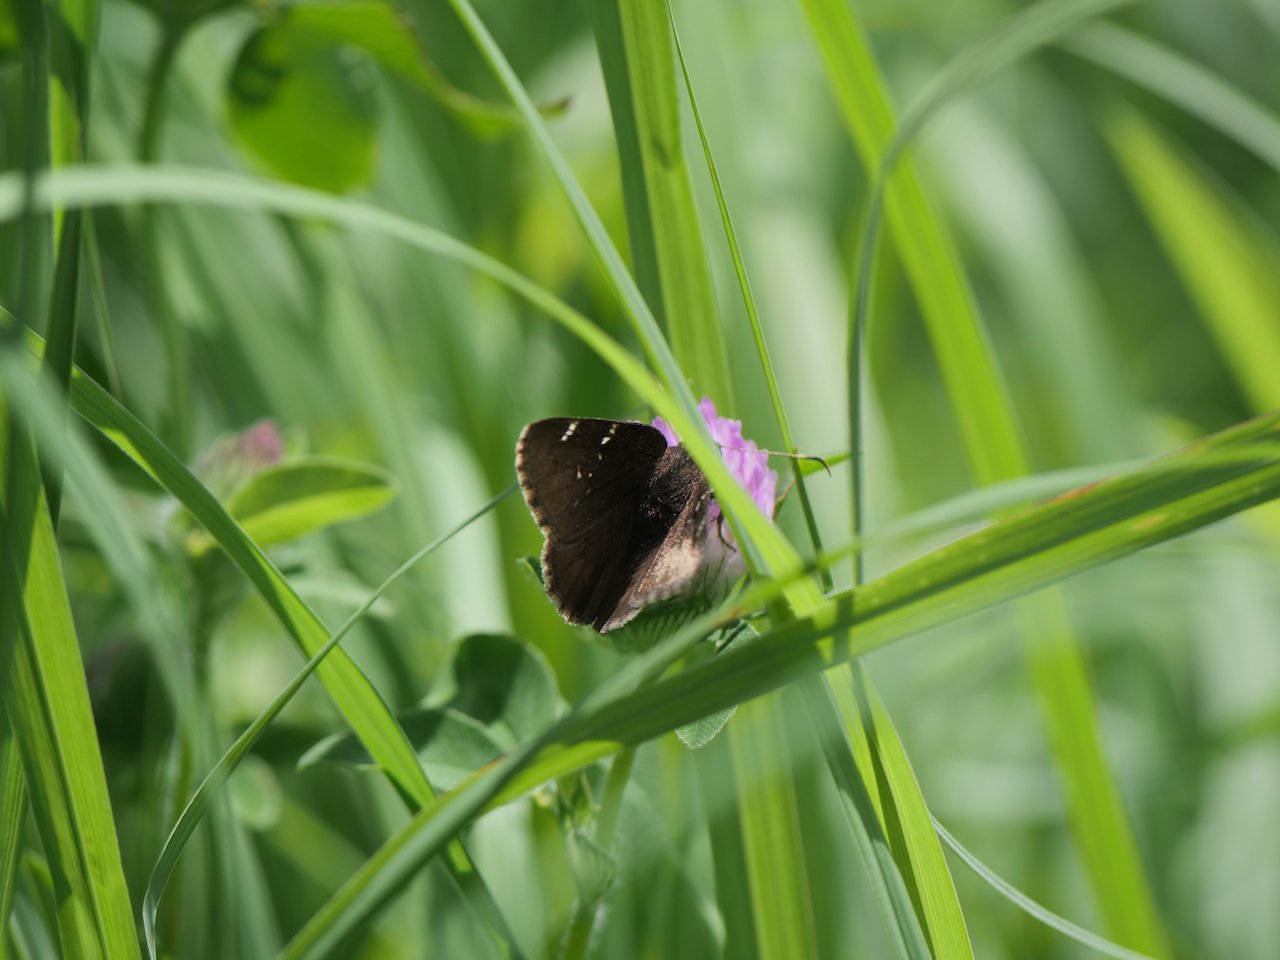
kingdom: Animalia
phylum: Arthropoda
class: Insecta
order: Lepidoptera
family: Hesperiidae
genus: Autochton
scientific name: Autochton
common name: Northern Cloudywing
